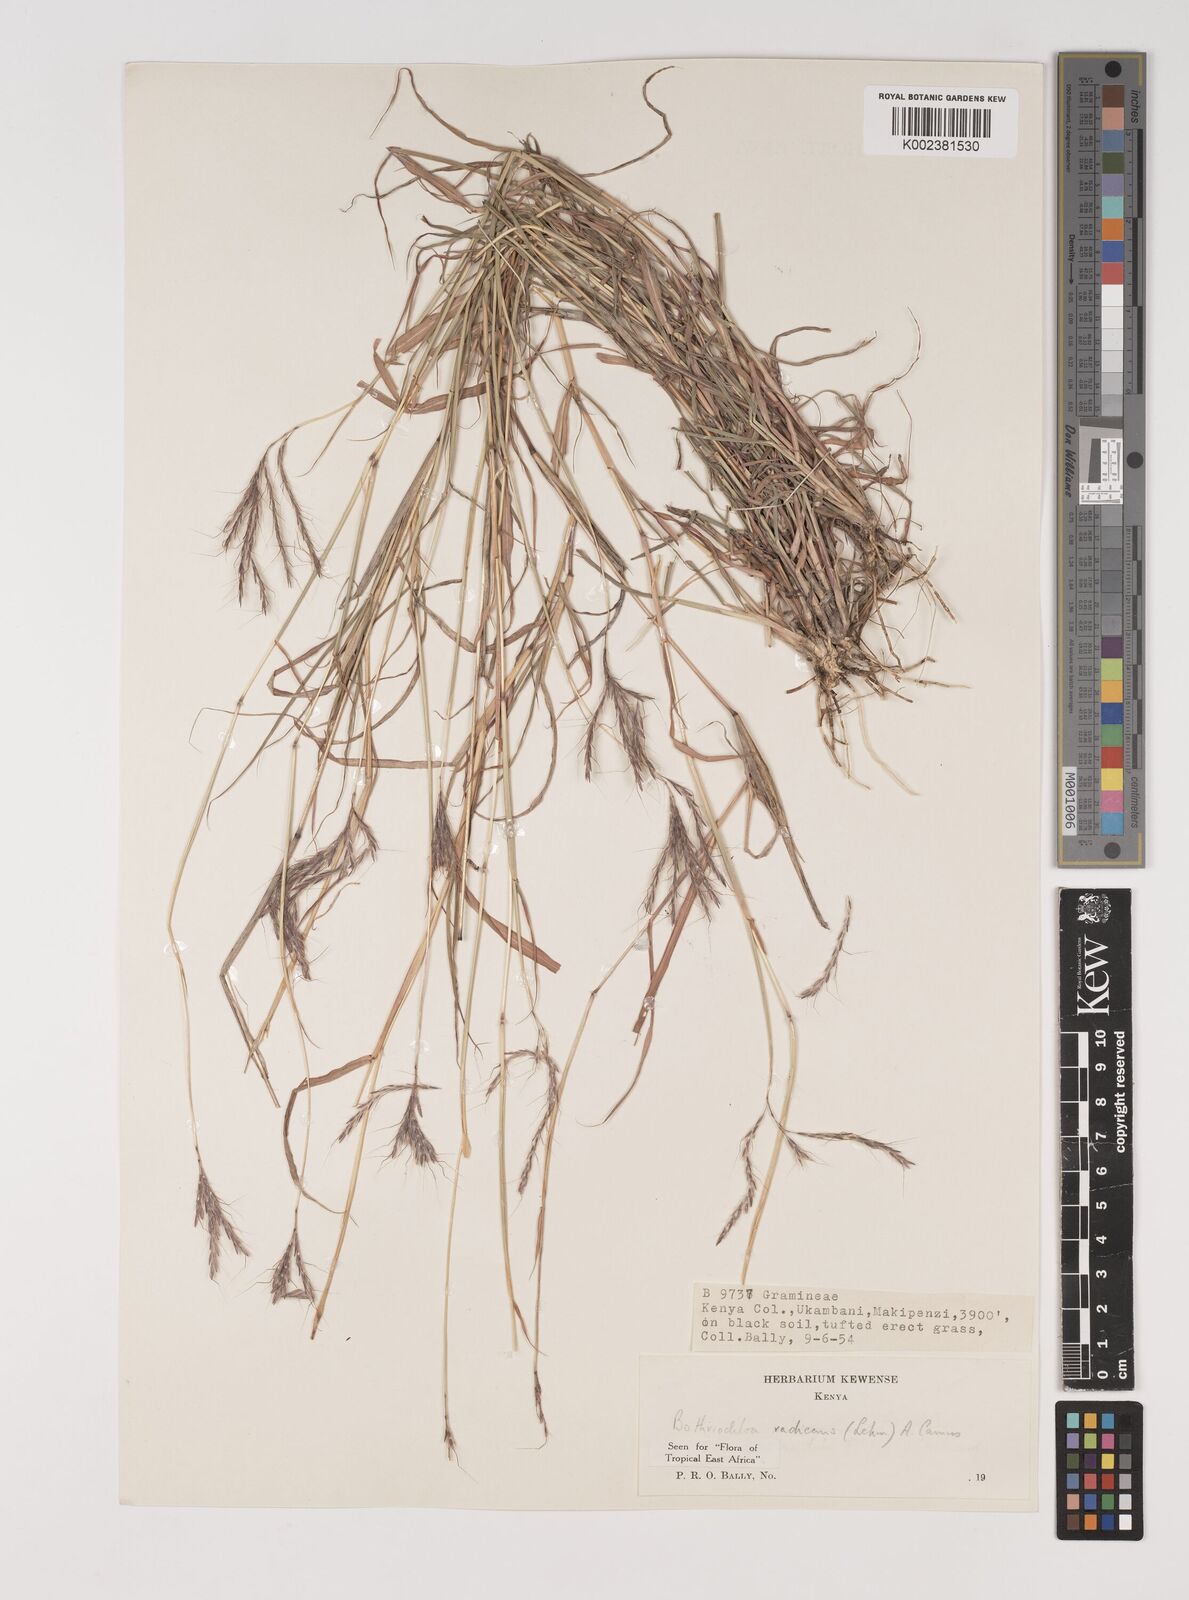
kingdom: Plantae
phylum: Tracheophyta
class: Liliopsida
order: Poales
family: Poaceae
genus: Bothriochloa
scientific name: Bothriochloa radicans
